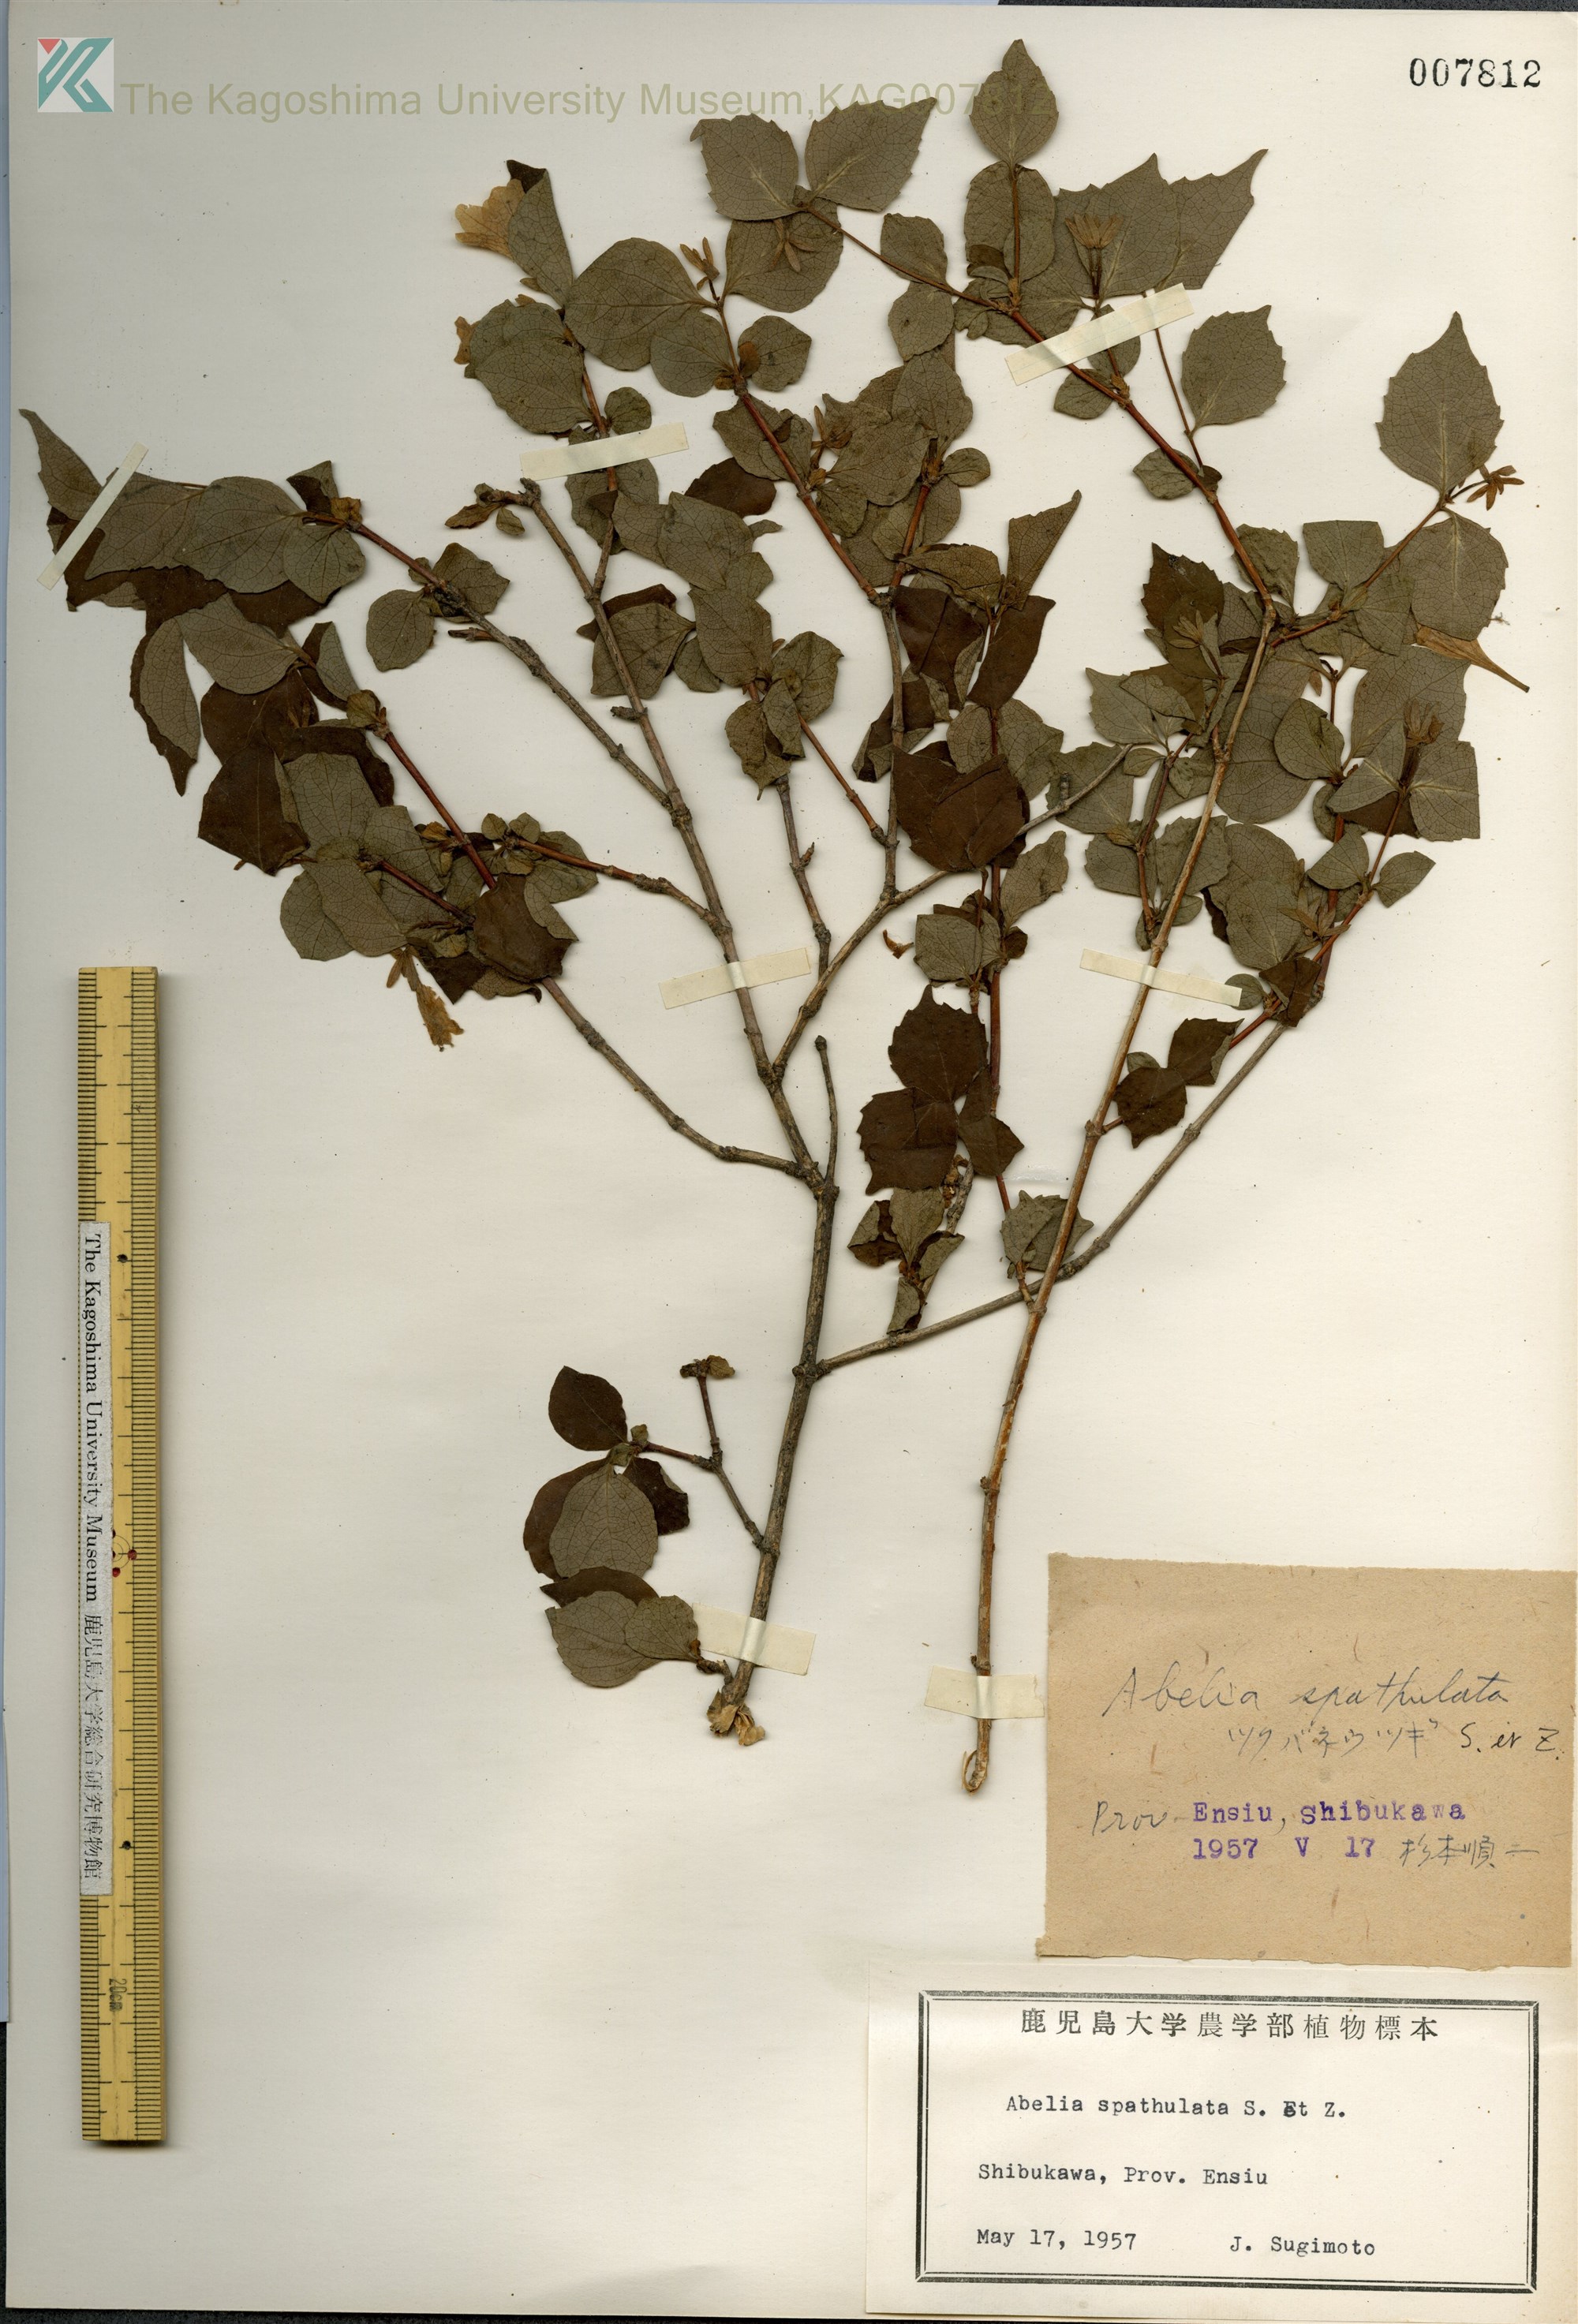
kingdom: Plantae
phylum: Tracheophyta
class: Magnoliopsida
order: Dipsacales
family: Caprifoliaceae
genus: Diabelia
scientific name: Diabelia spathulata
